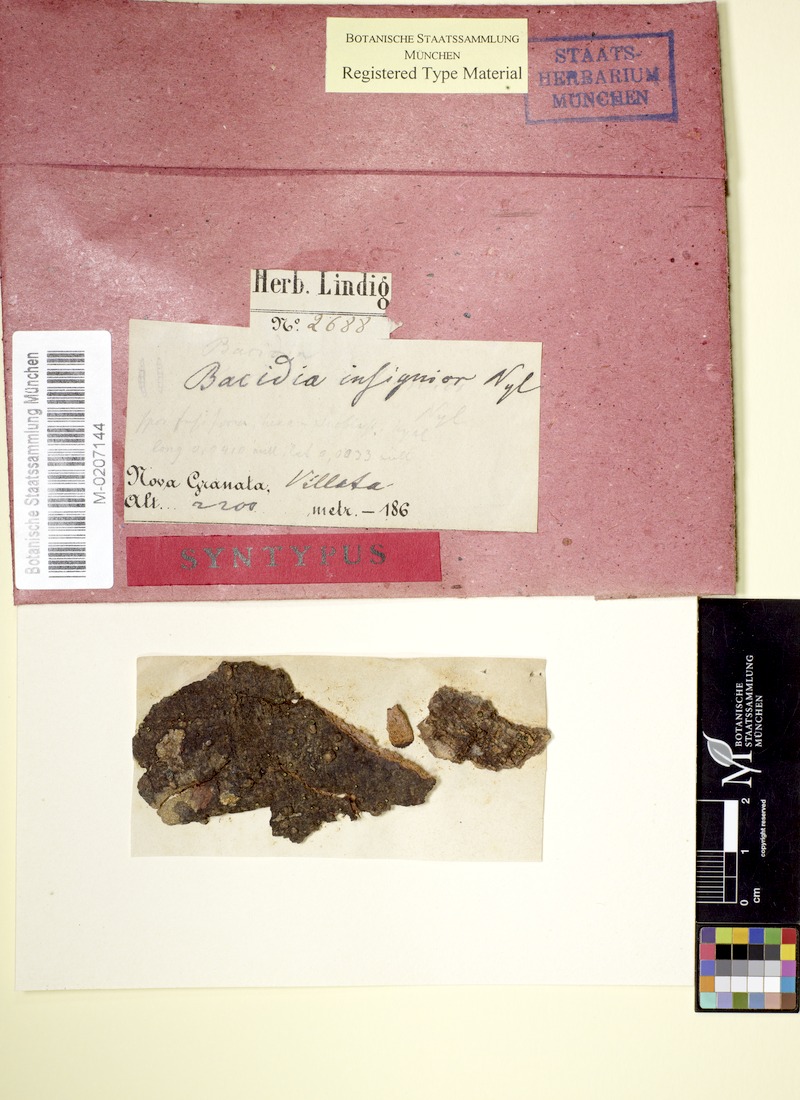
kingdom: Fungi
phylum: Ascomycota
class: Arthoniomycetes
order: Arthoniales
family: Opegraphaceae
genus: Cresponea
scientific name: Cresponea leprieurii
